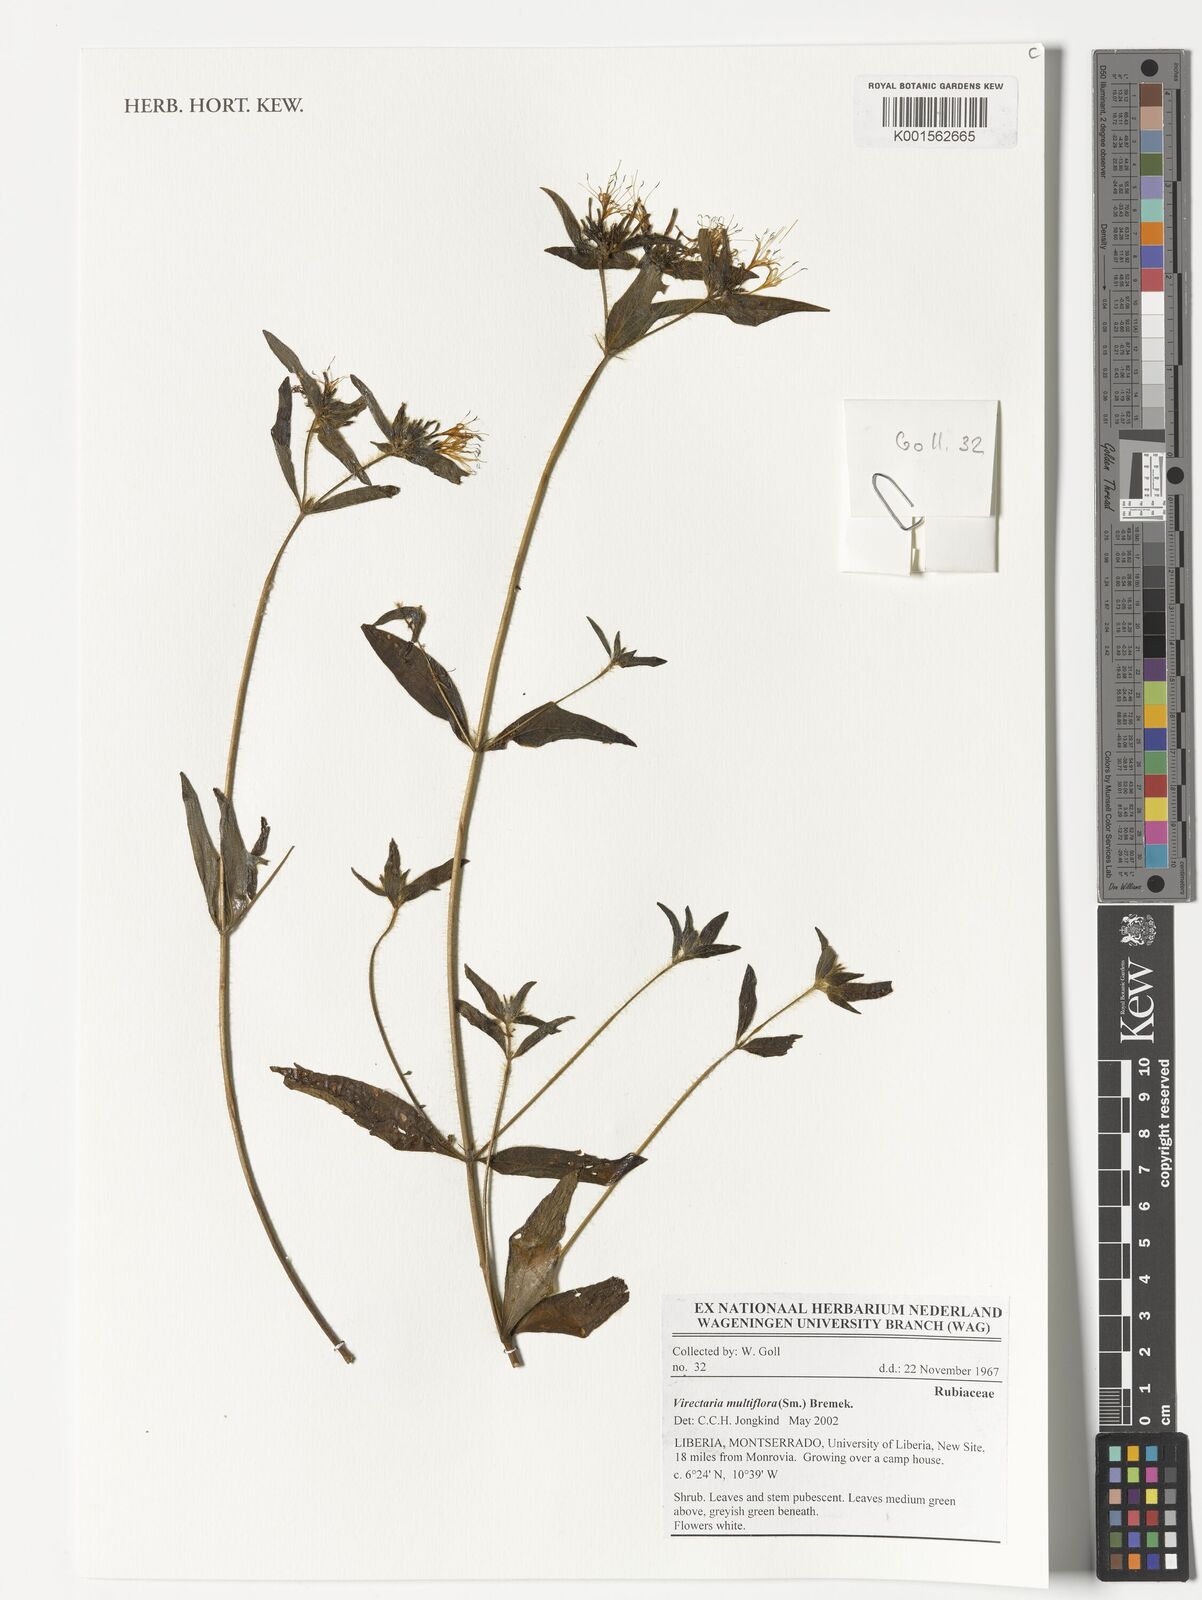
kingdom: Plantae
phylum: Tracheophyta
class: Magnoliopsida
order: Gentianales
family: Rubiaceae
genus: Virectaria
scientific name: Virectaria multiflora
